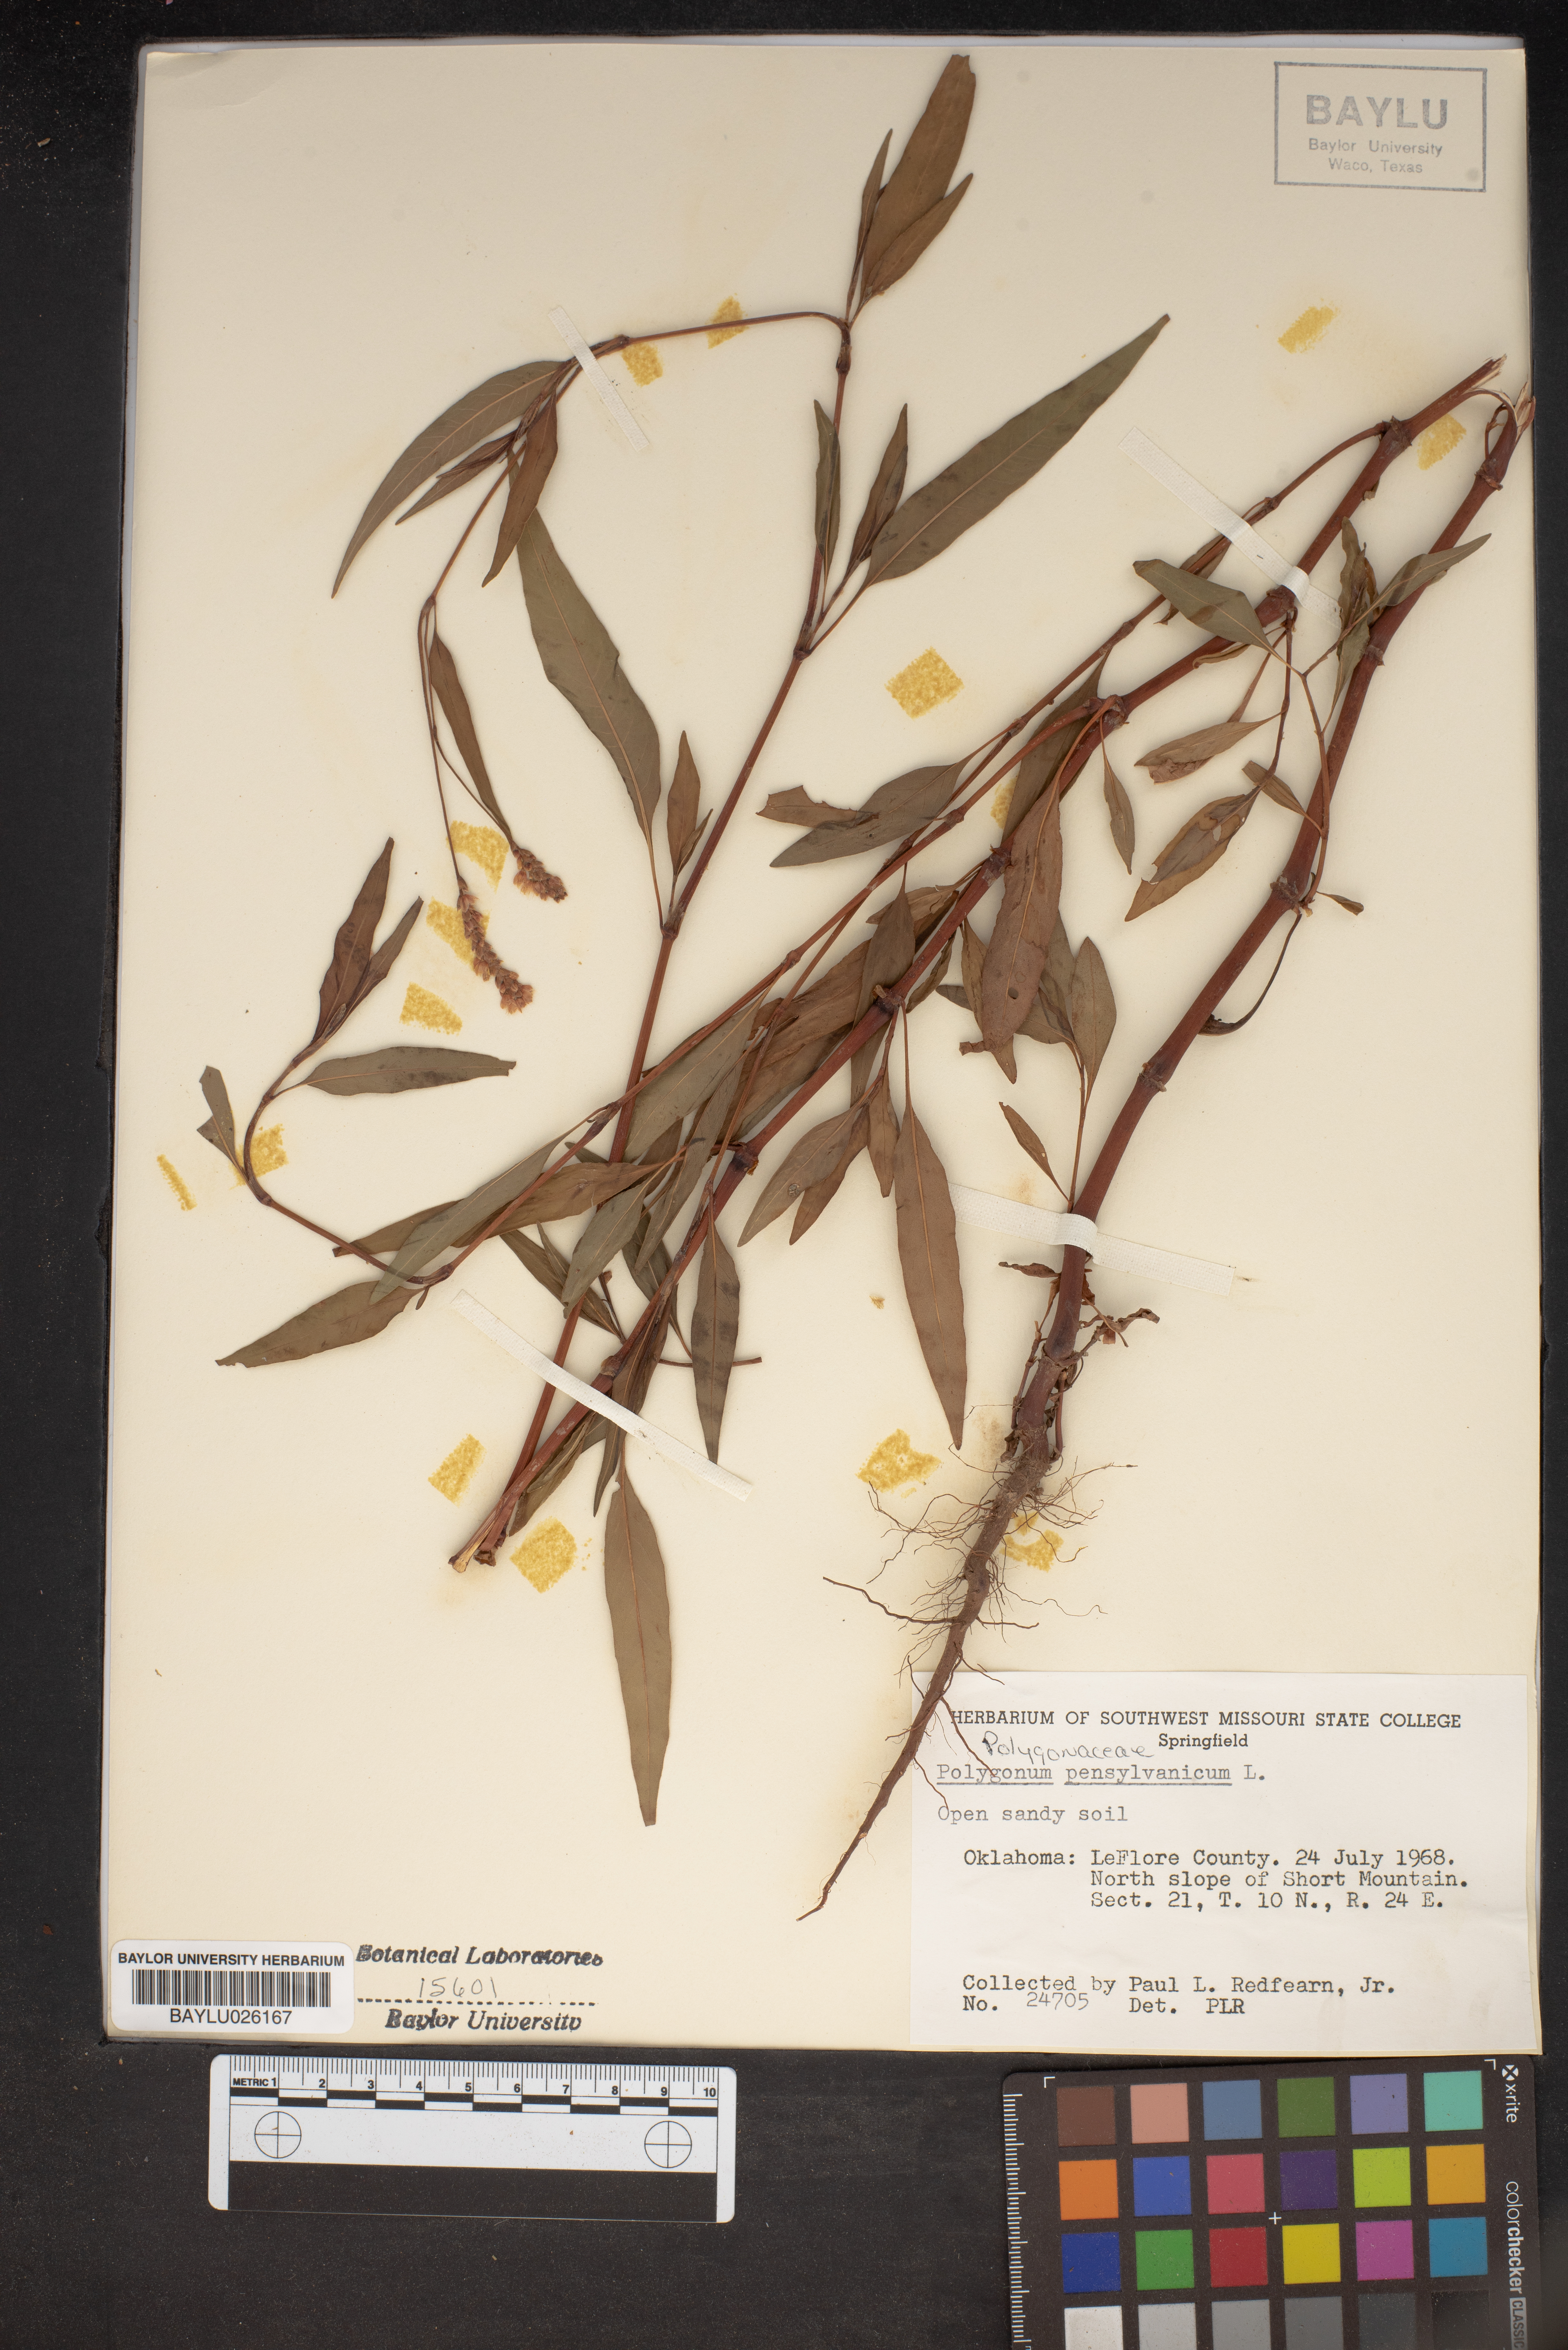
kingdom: Plantae
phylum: Tracheophyta
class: Magnoliopsida
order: Caryophyllales
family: Polygonaceae
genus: Persicaria
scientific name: Persicaria pensylvanica
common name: Pinkweed
